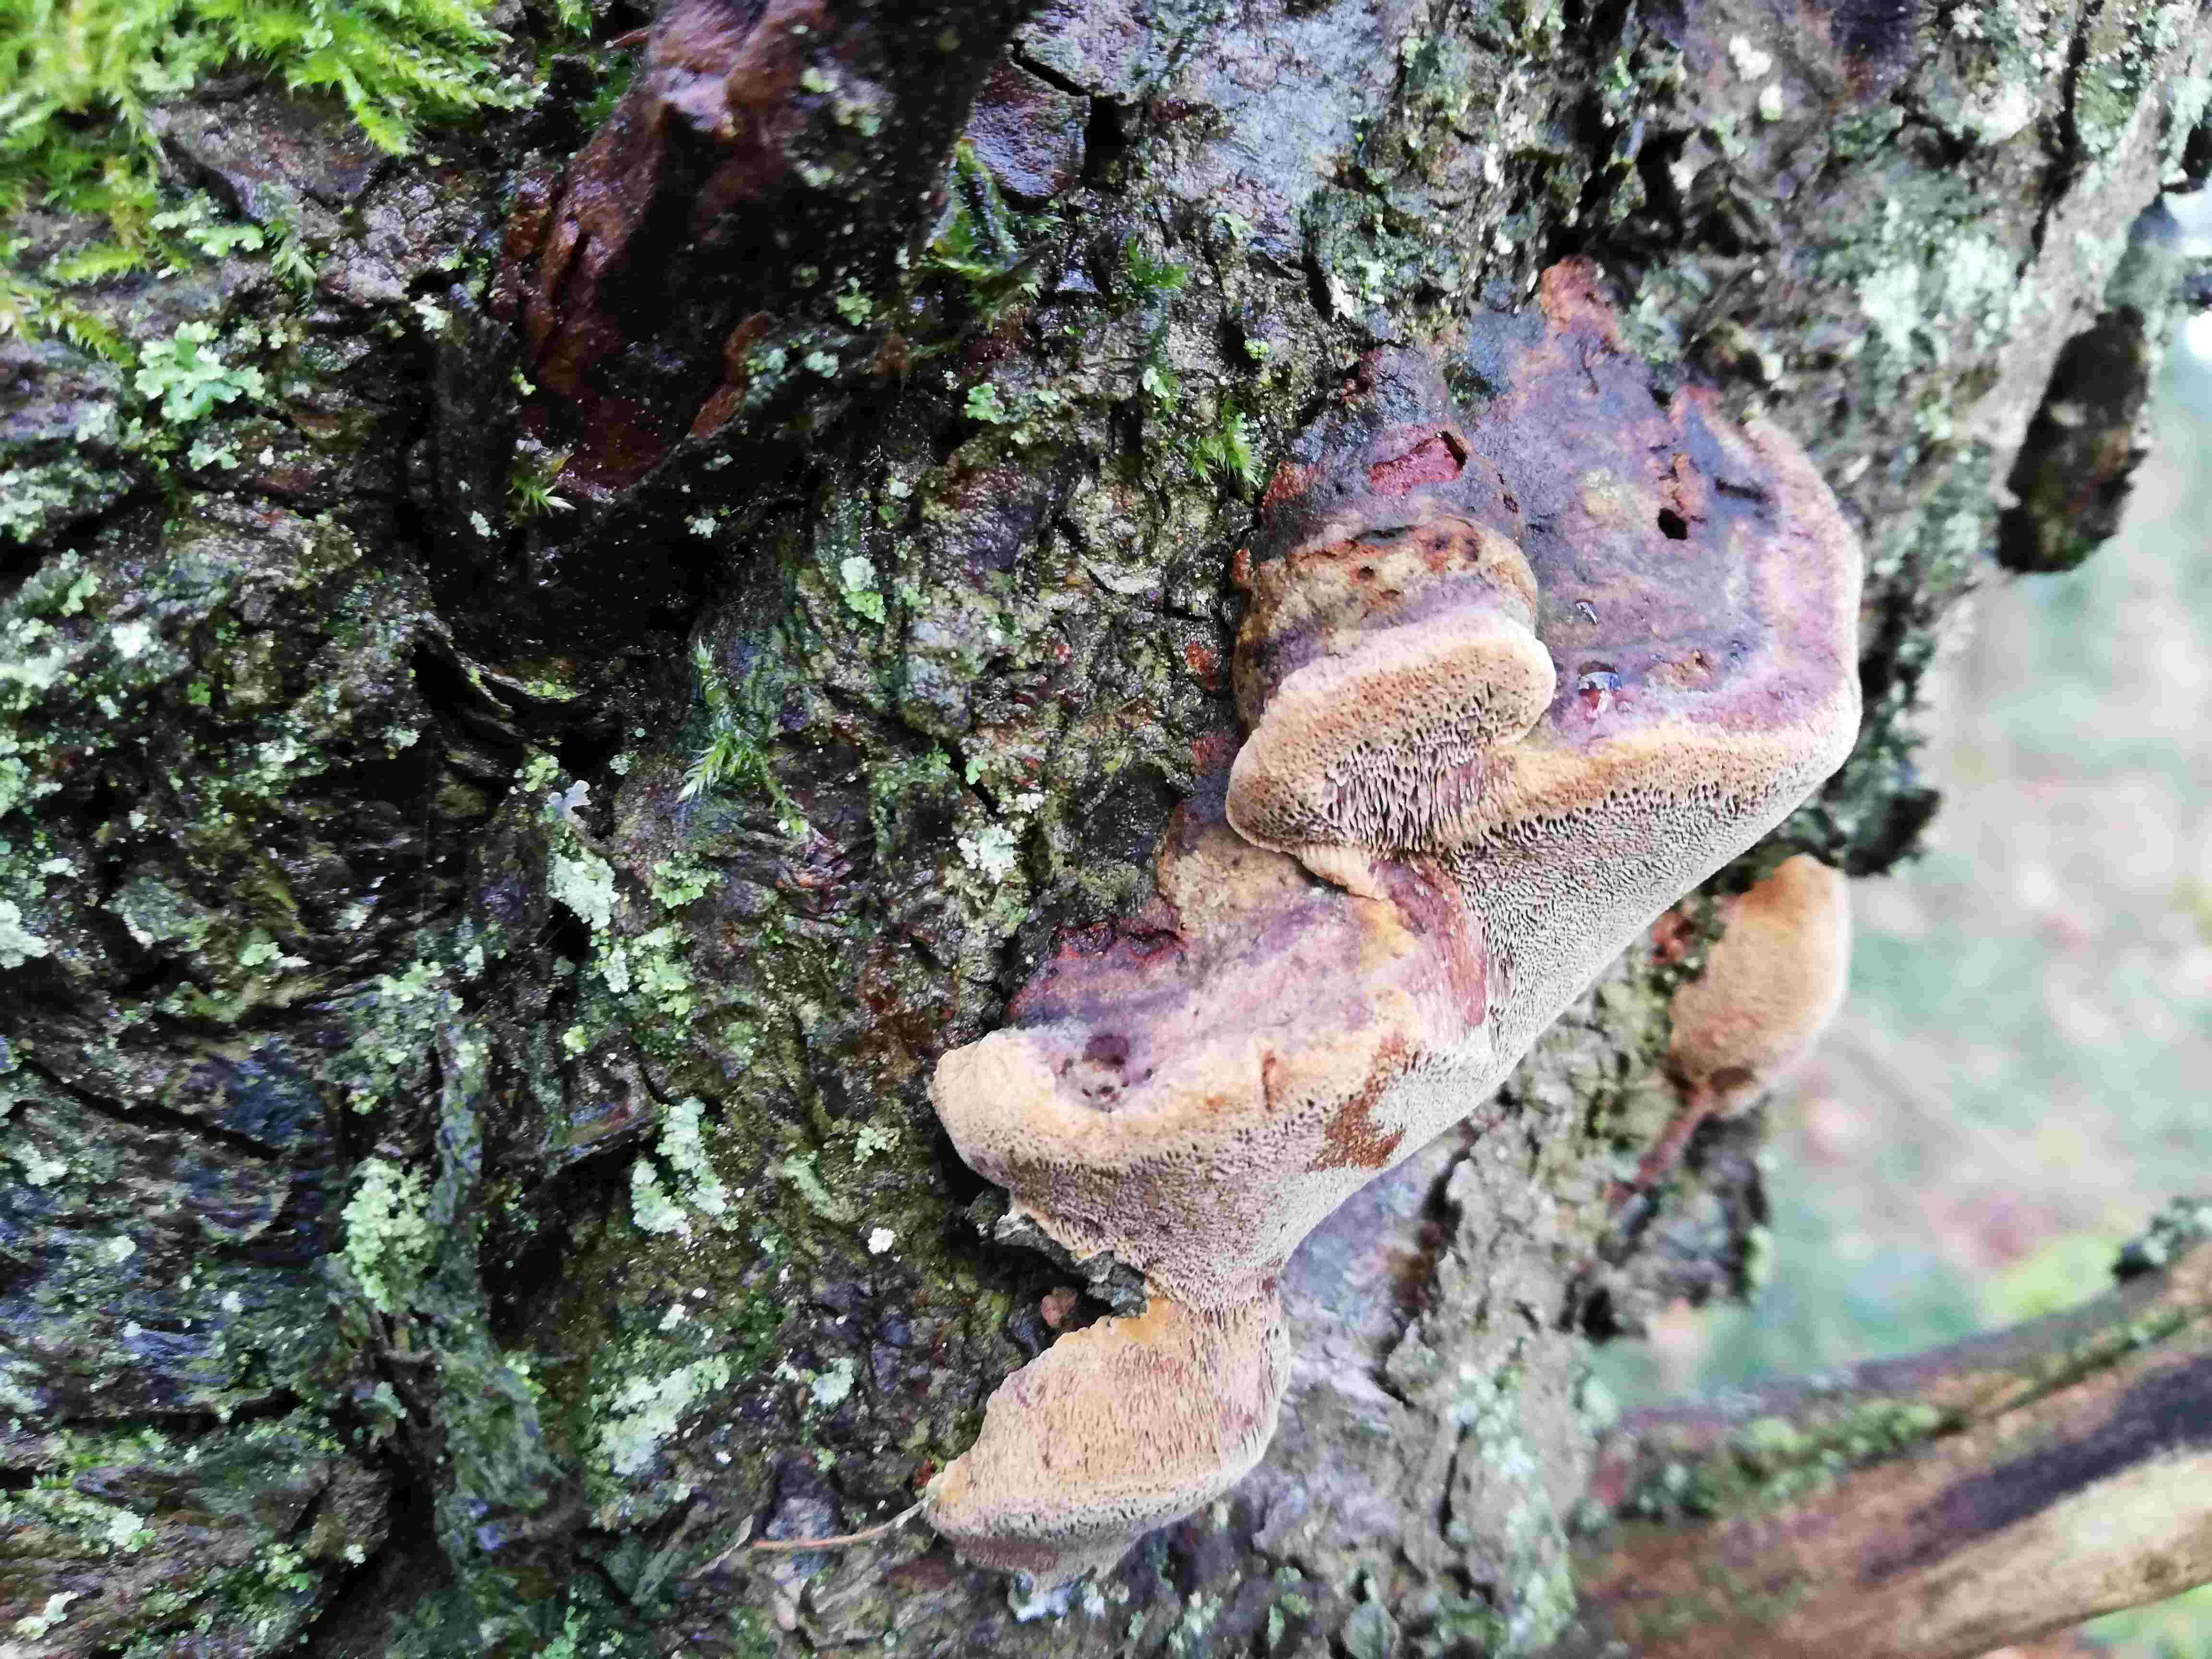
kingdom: Fungi
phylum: Basidiomycota
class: Agaricomycetes
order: Hymenochaetales
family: Hymenochaetaceae
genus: Phellinus
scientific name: Phellinus pomaceus
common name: blomme-ildporesvamp
